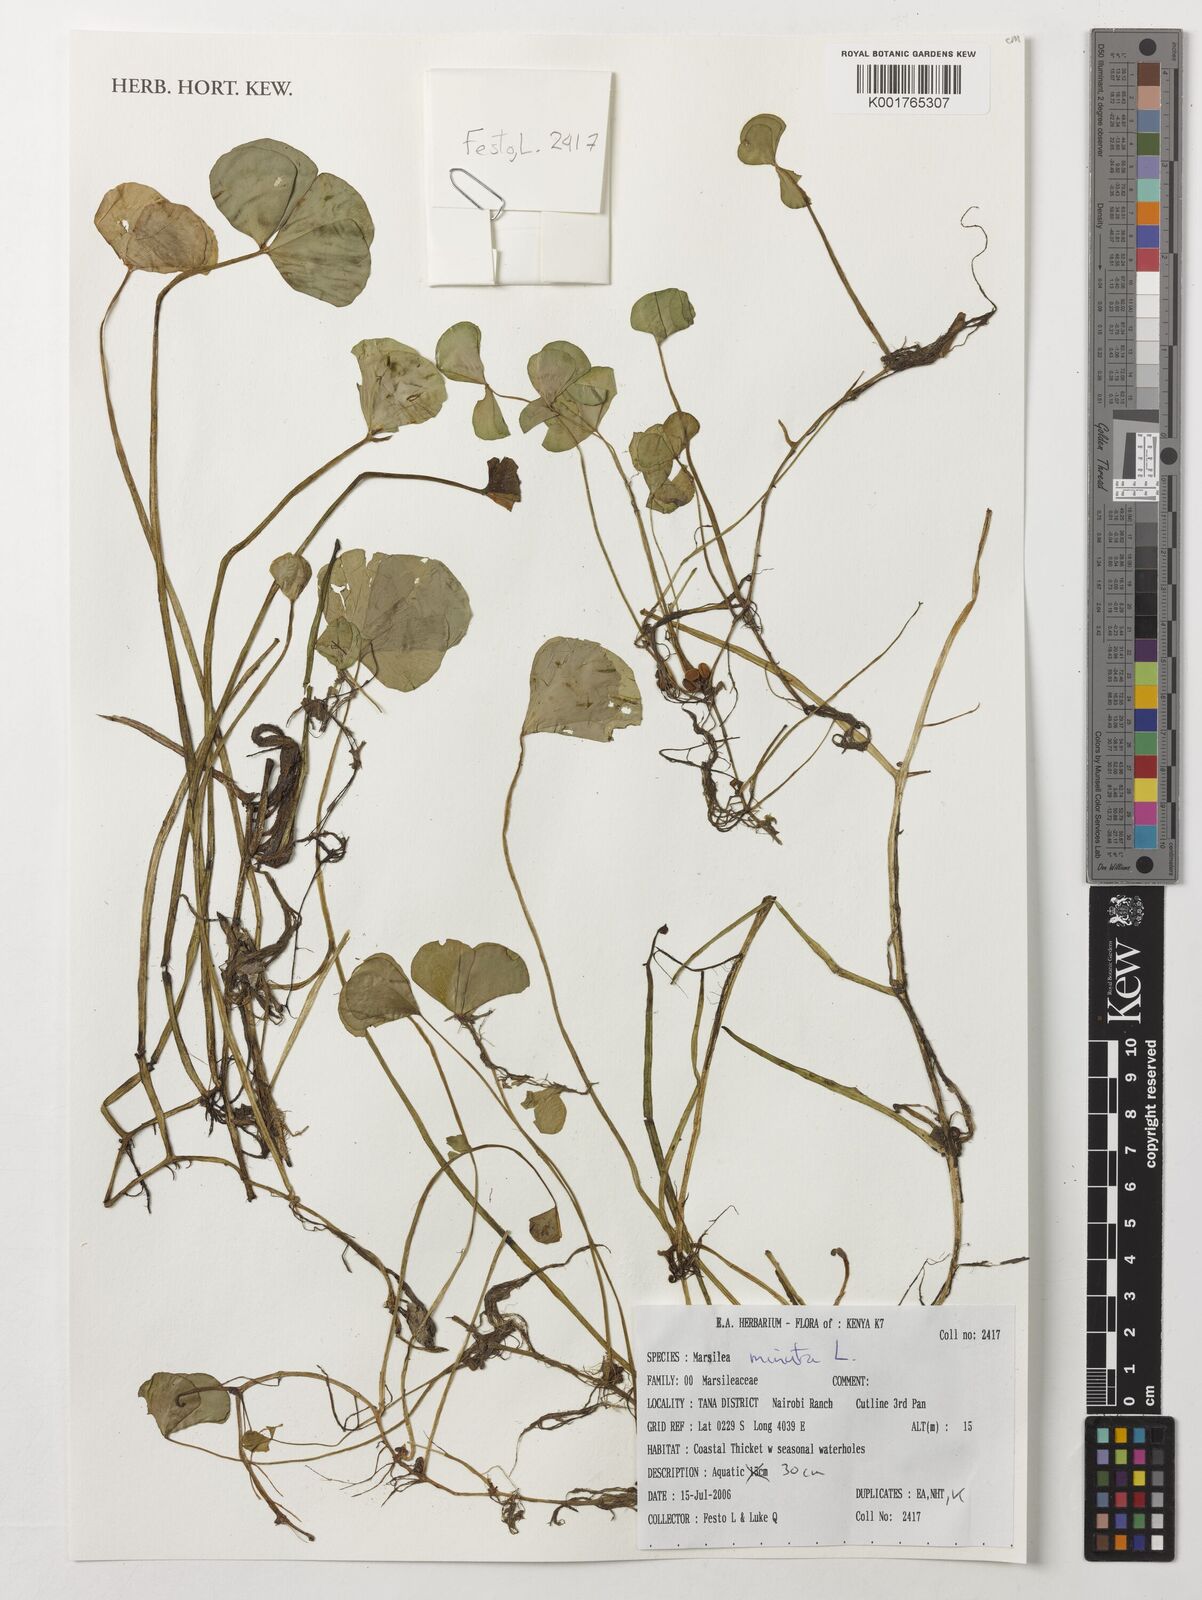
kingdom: Plantae
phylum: Tracheophyta
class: Polypodiopsida
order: Salviniales
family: Marsileaceae
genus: Marsilea
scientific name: Marsilea minuta
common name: Dwarf waterclover
